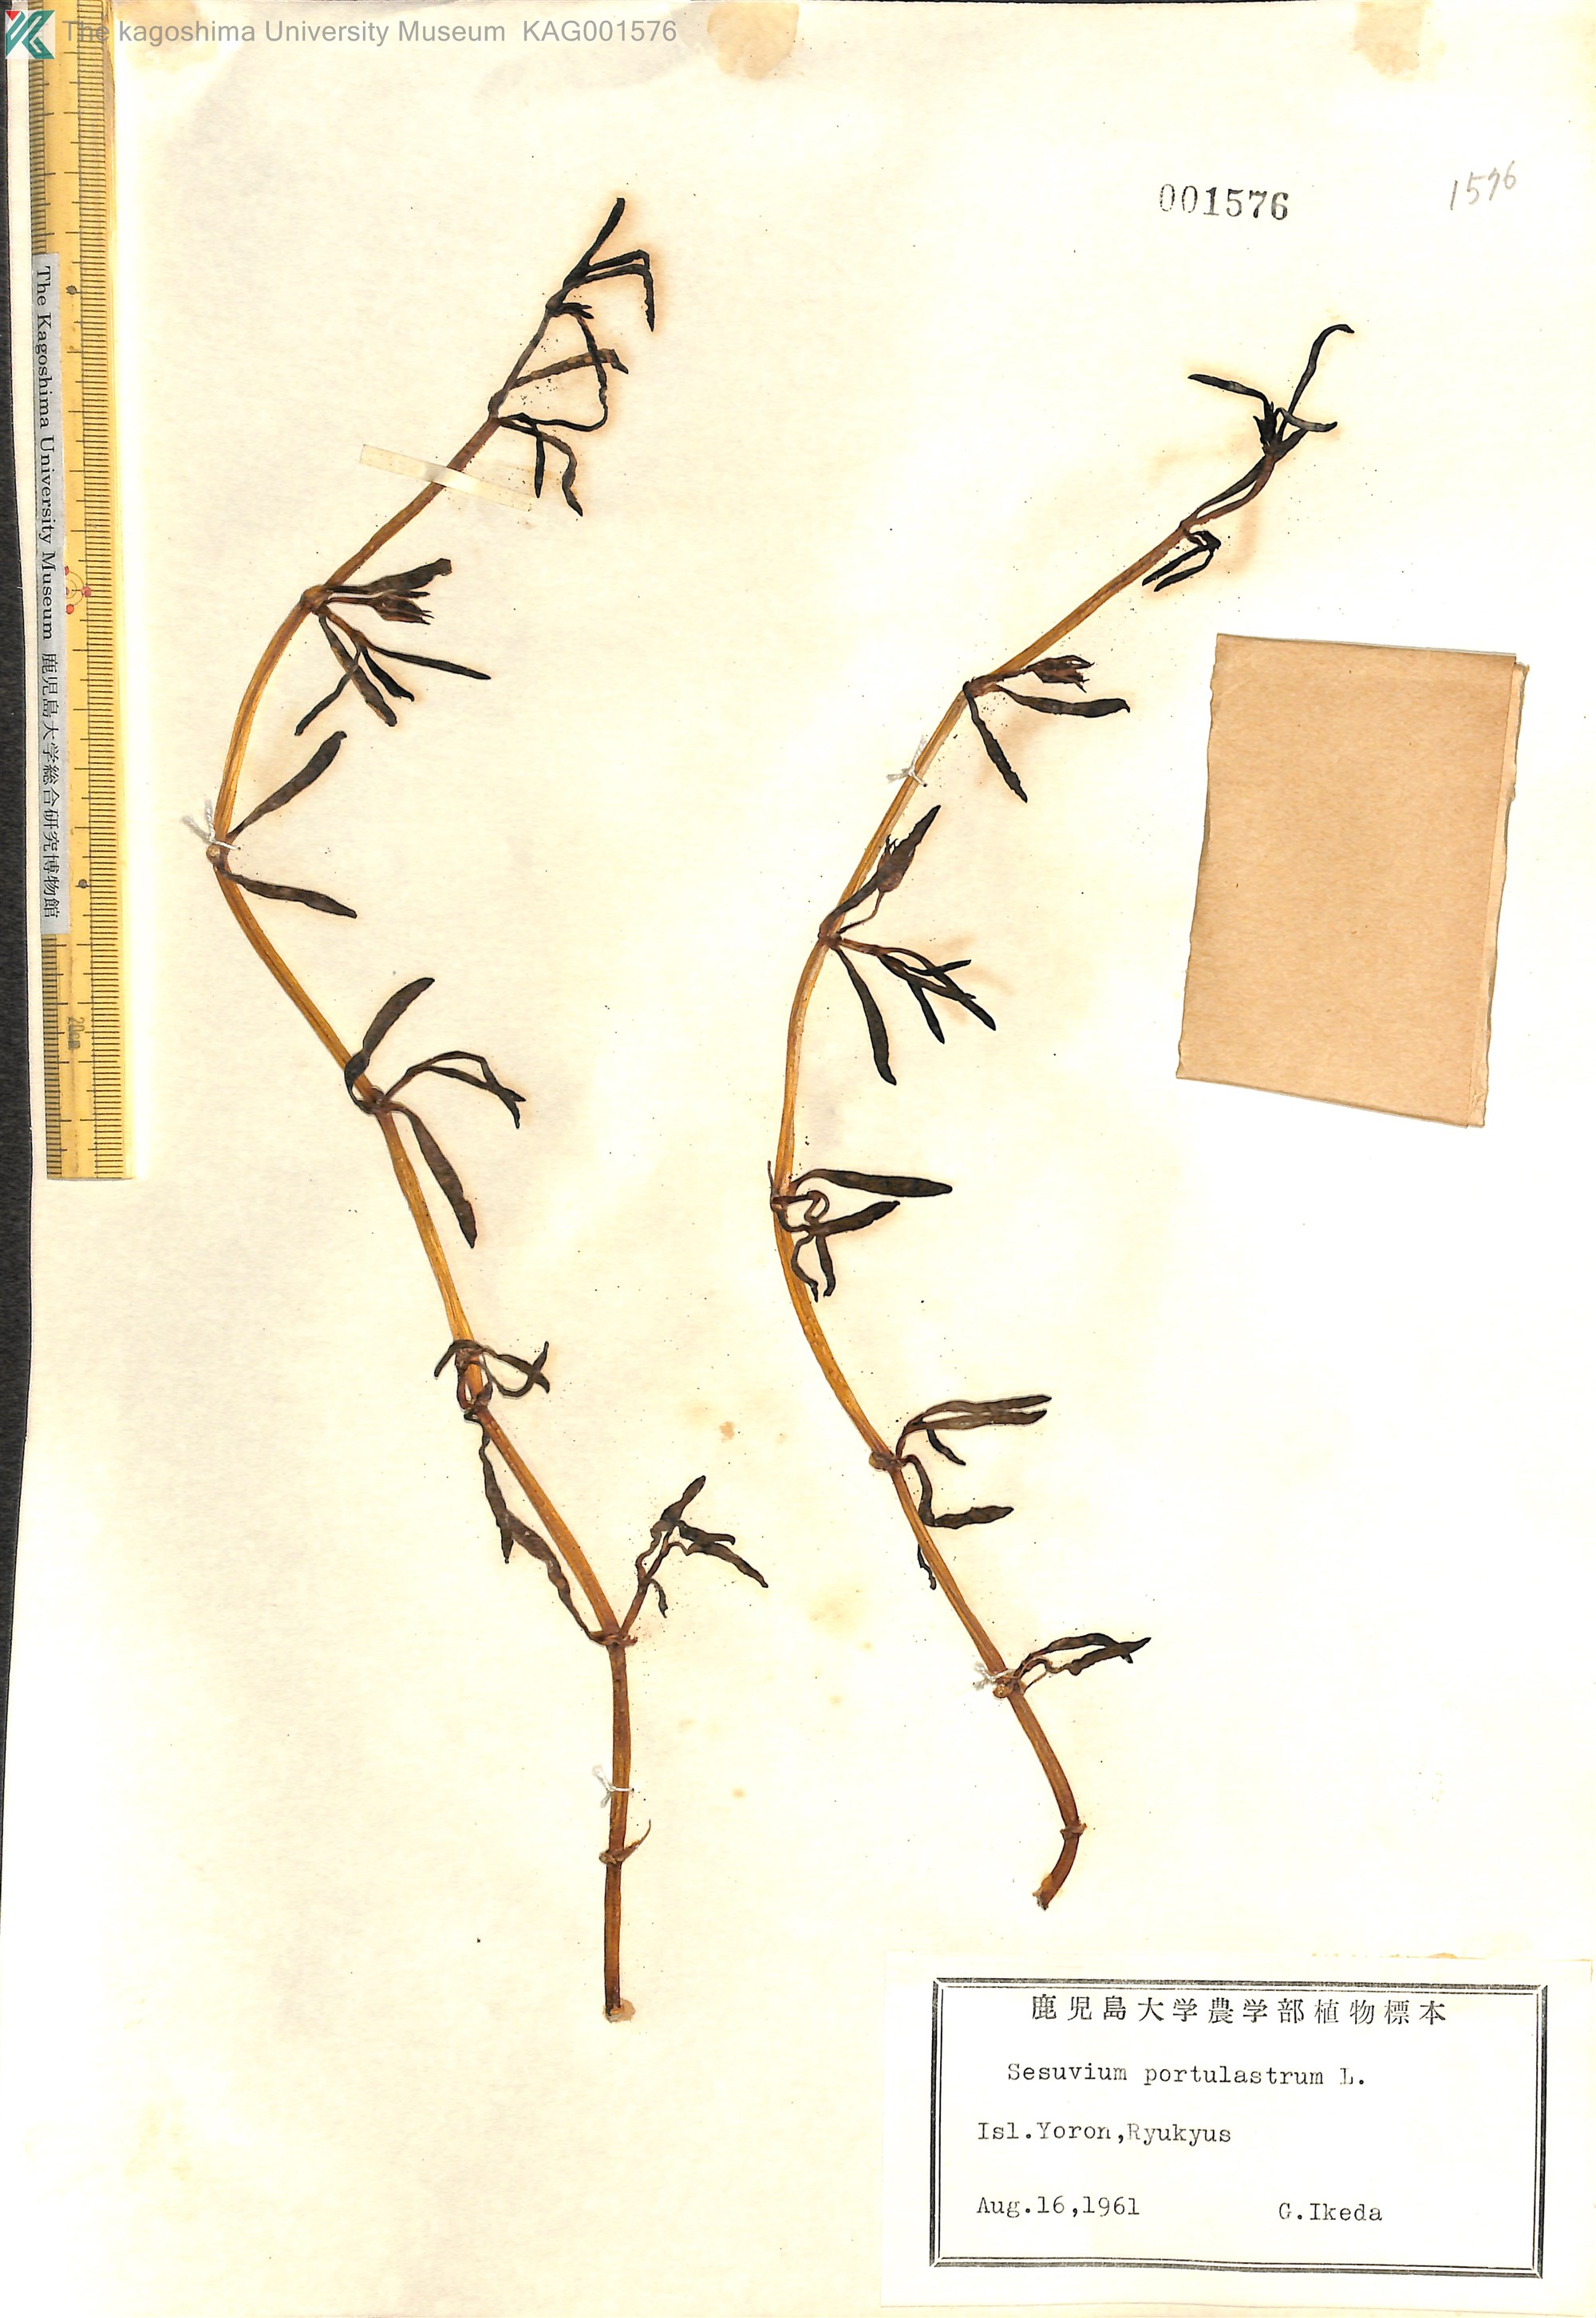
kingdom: Plantae
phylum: Tracheophyta
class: Magnoliopsida
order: Caryophyllales
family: Aizoaceae
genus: Sesuvium
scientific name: Sesuvium portulacastrum
